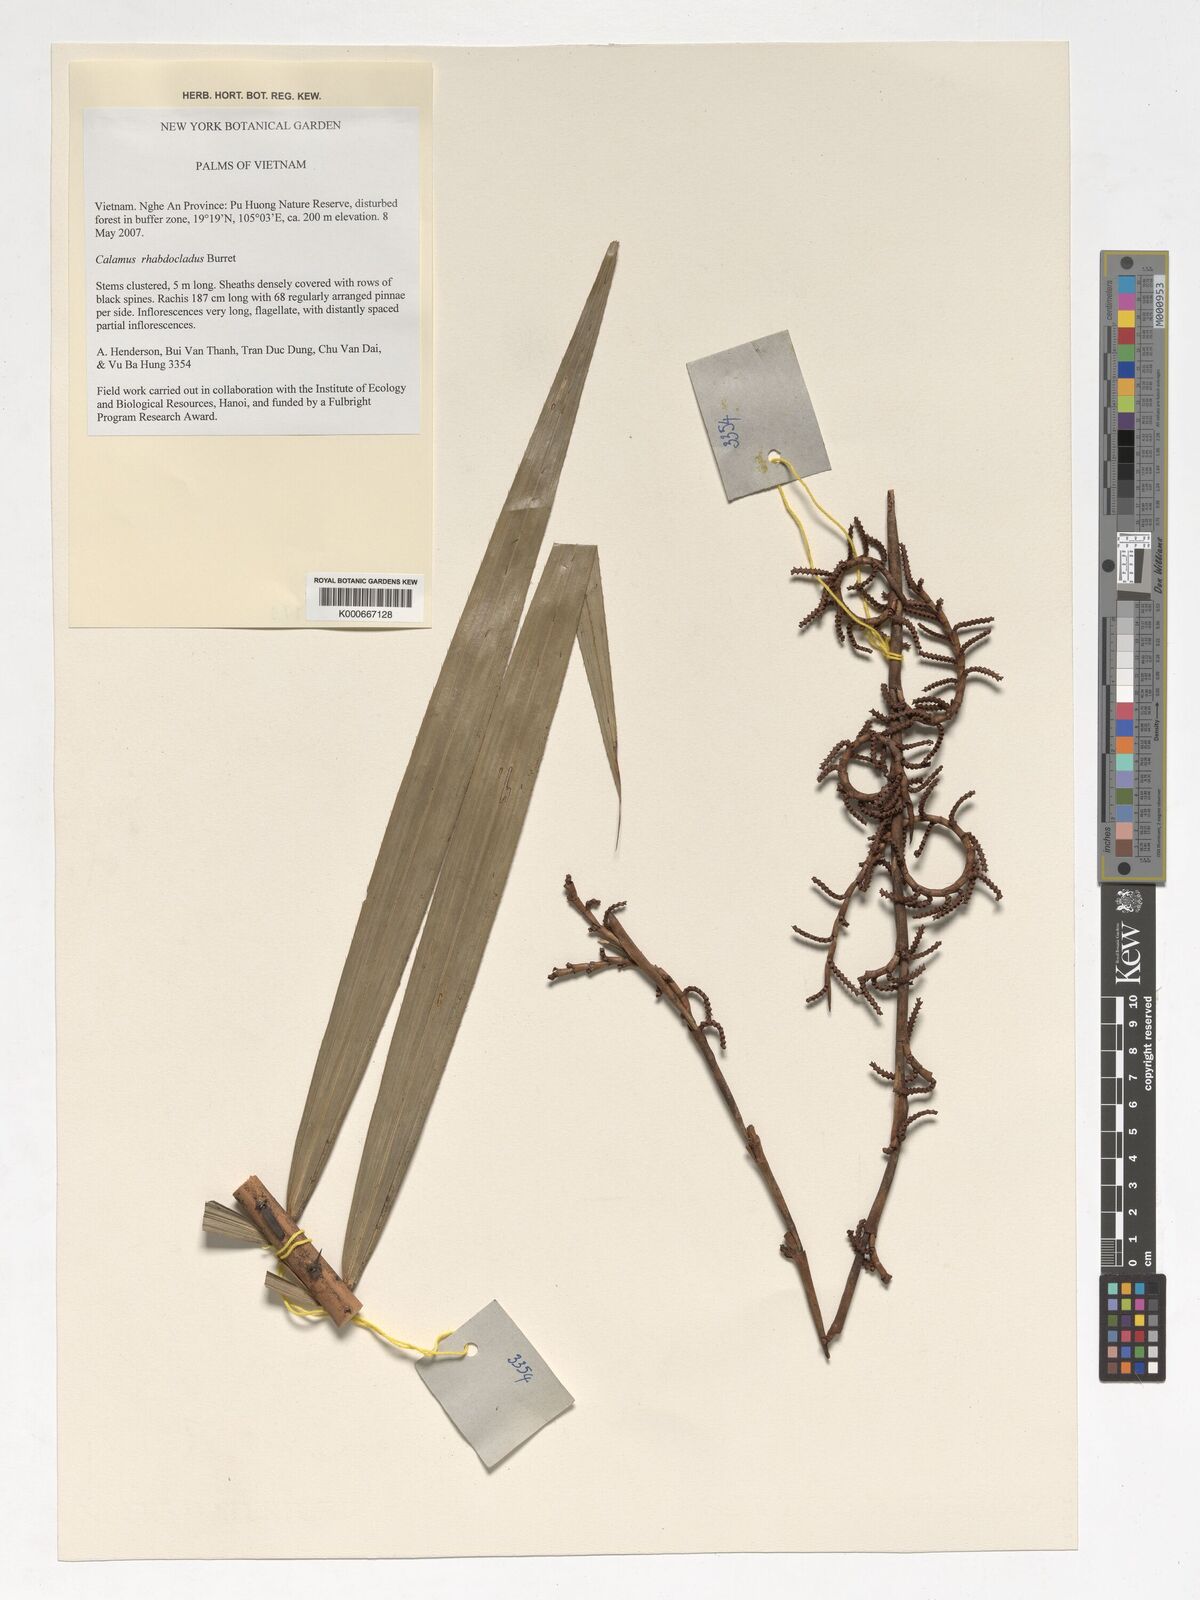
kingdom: Plantae
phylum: Tracheophyta
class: Liliopsida
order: Arecales
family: Arecaceae
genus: Calamus
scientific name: Calamus rhabdocladus
